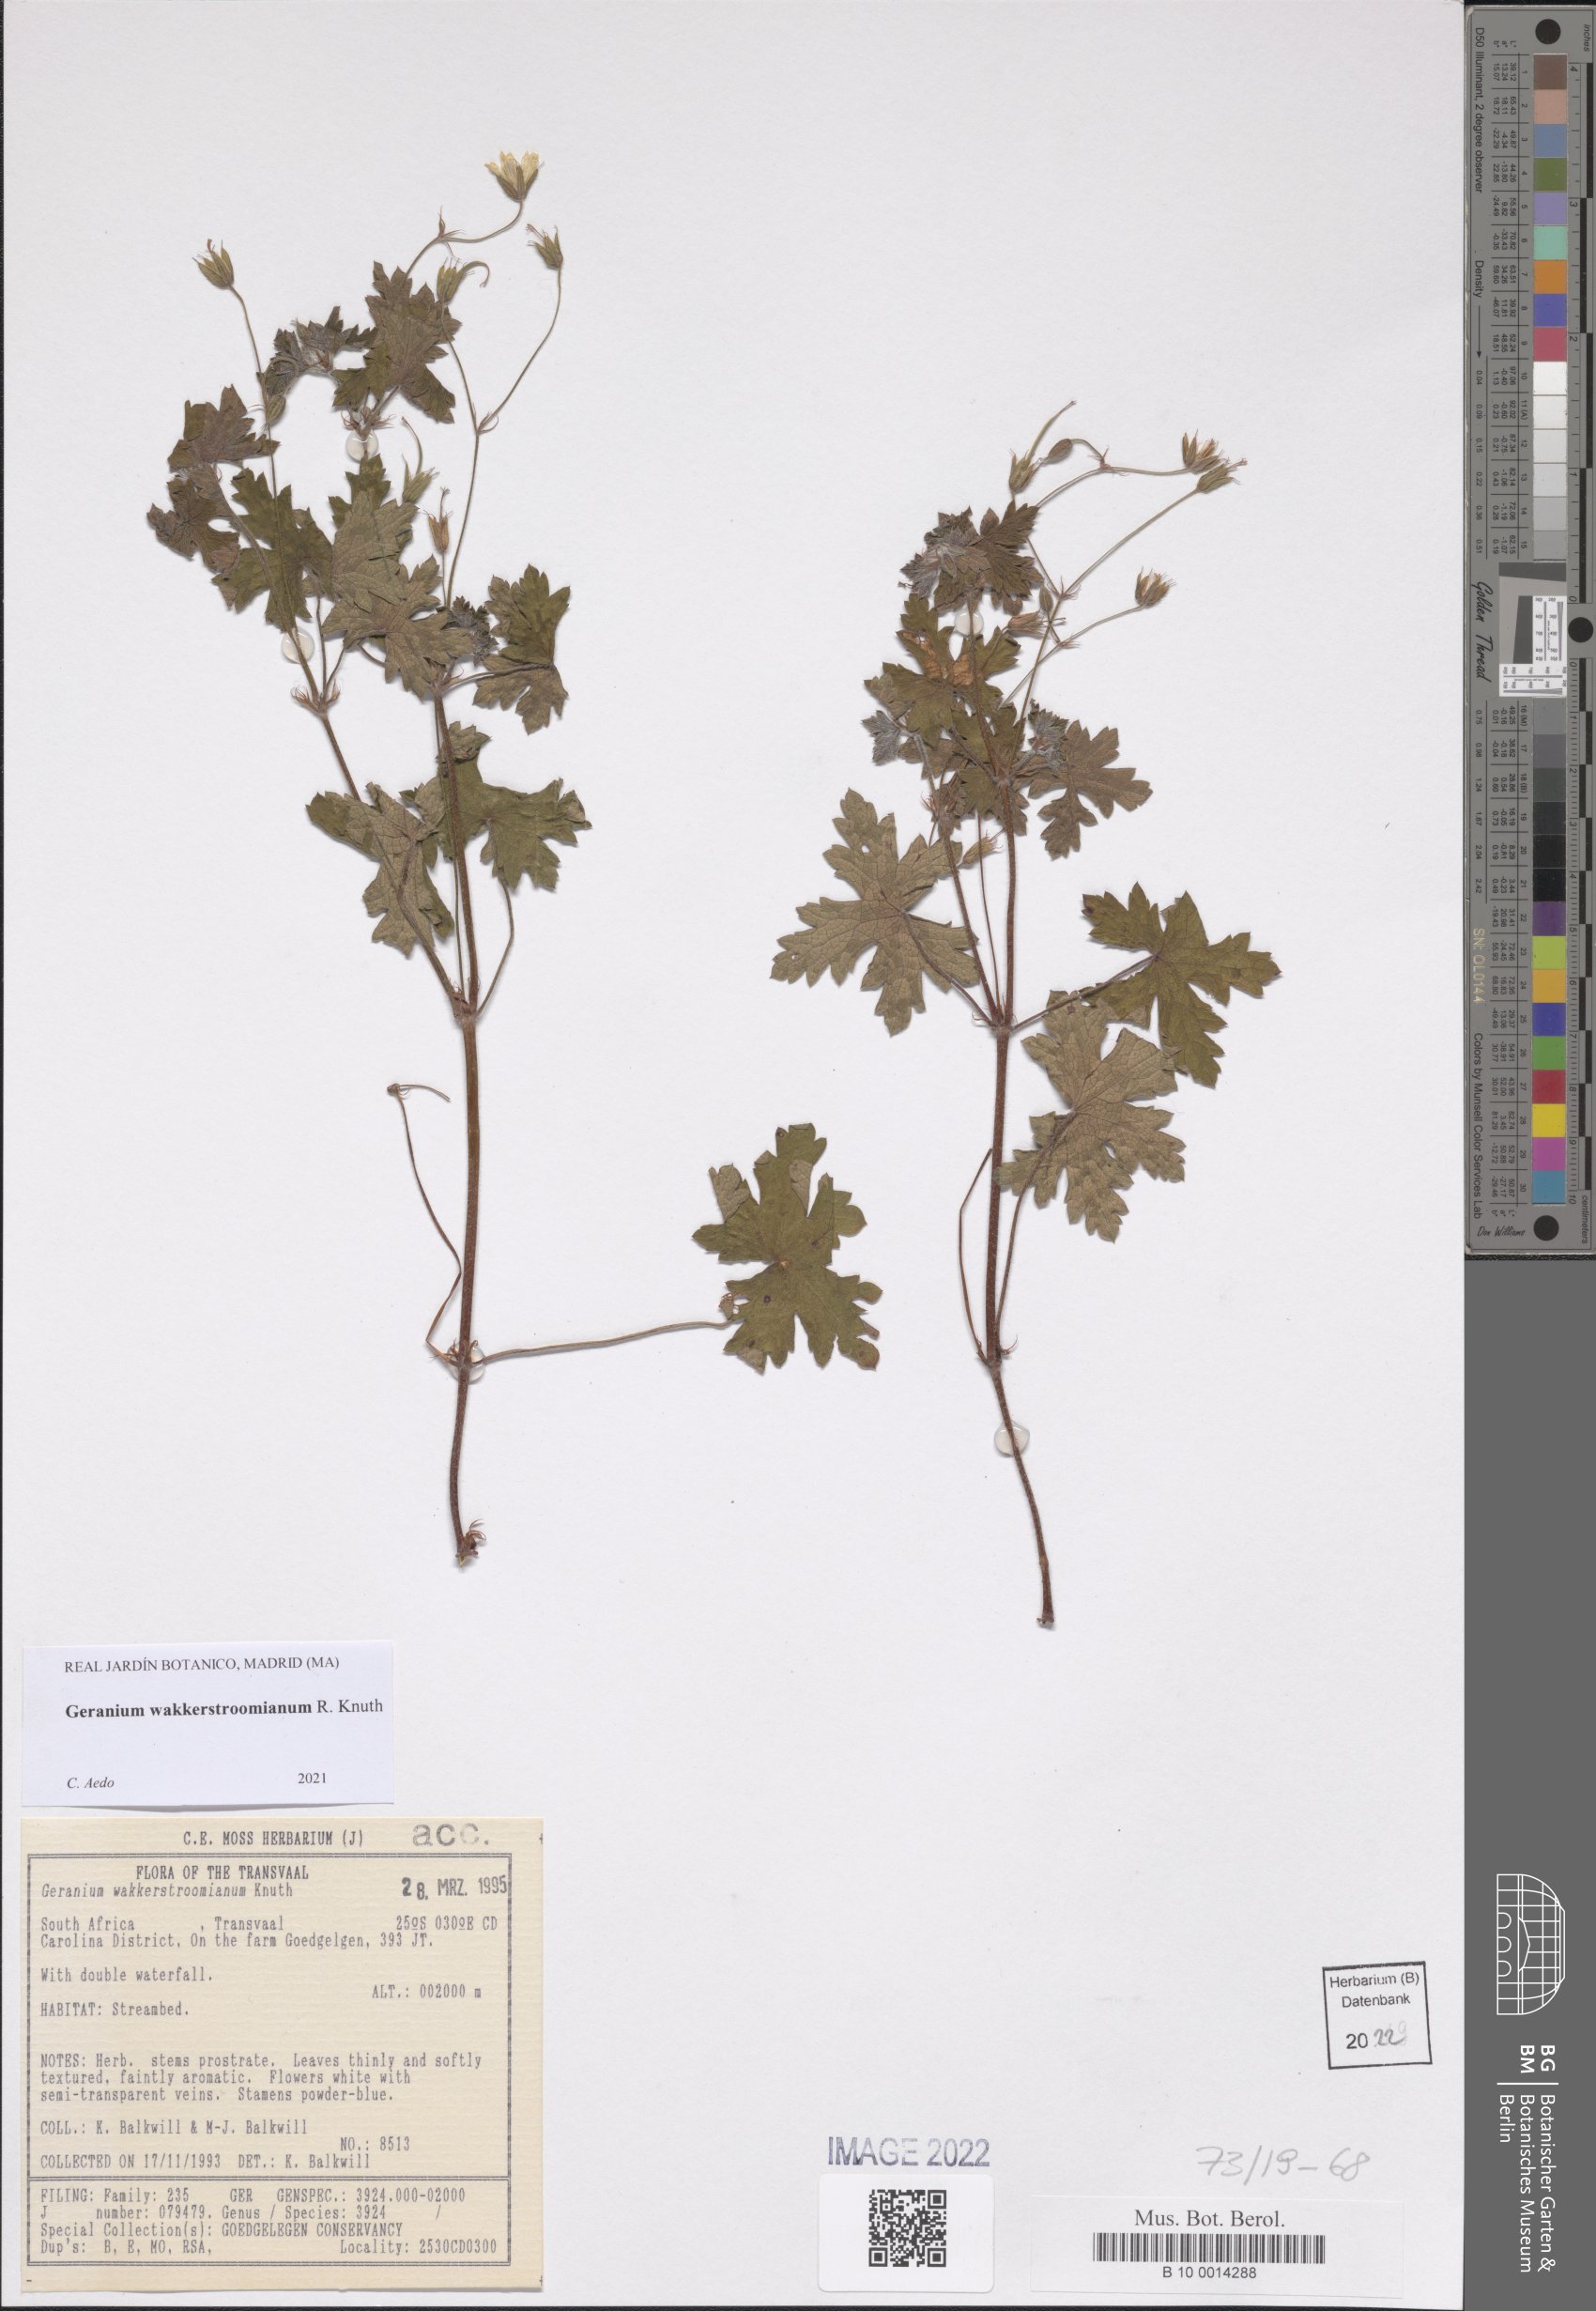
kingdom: Plantae
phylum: Tracheophyta
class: Magnoliopsida
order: Geraniales
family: Geraniaceae
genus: Geranium
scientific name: Geranium wakkerstroomianum
